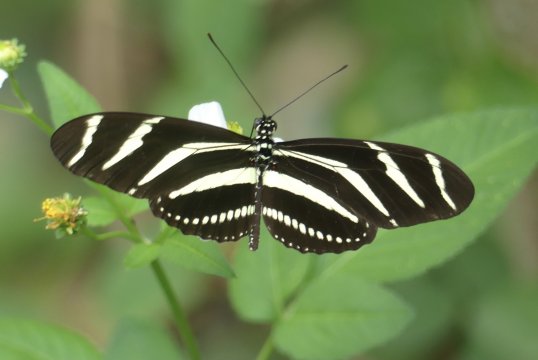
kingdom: Animalia
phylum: Arthropoda
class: Insecta
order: Lepidoptera
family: Nymphalidae
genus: Heliconius
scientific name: Heliconius charithonia
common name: Zebra Longwing
